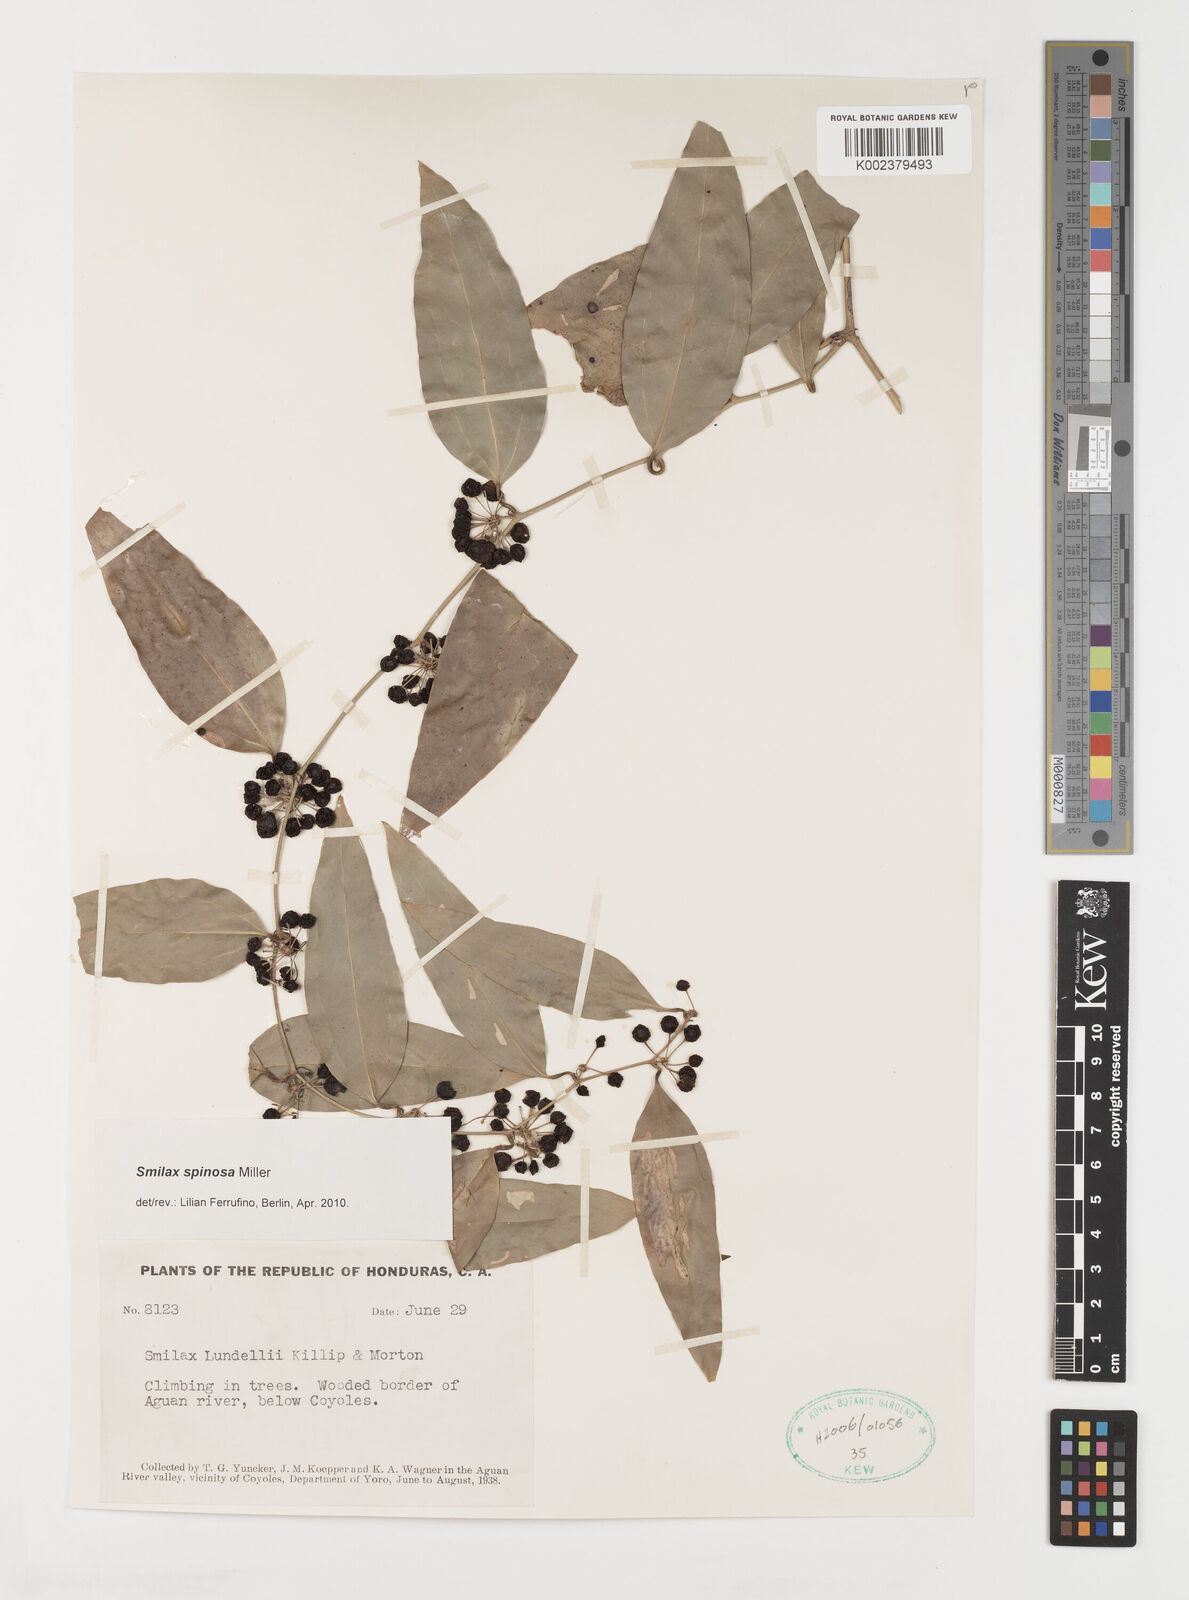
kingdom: Plantae
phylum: Tracheophyta
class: Liliopsida
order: Liliales
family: Smilacaceae
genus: Smilax
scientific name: Smilax spinosa
